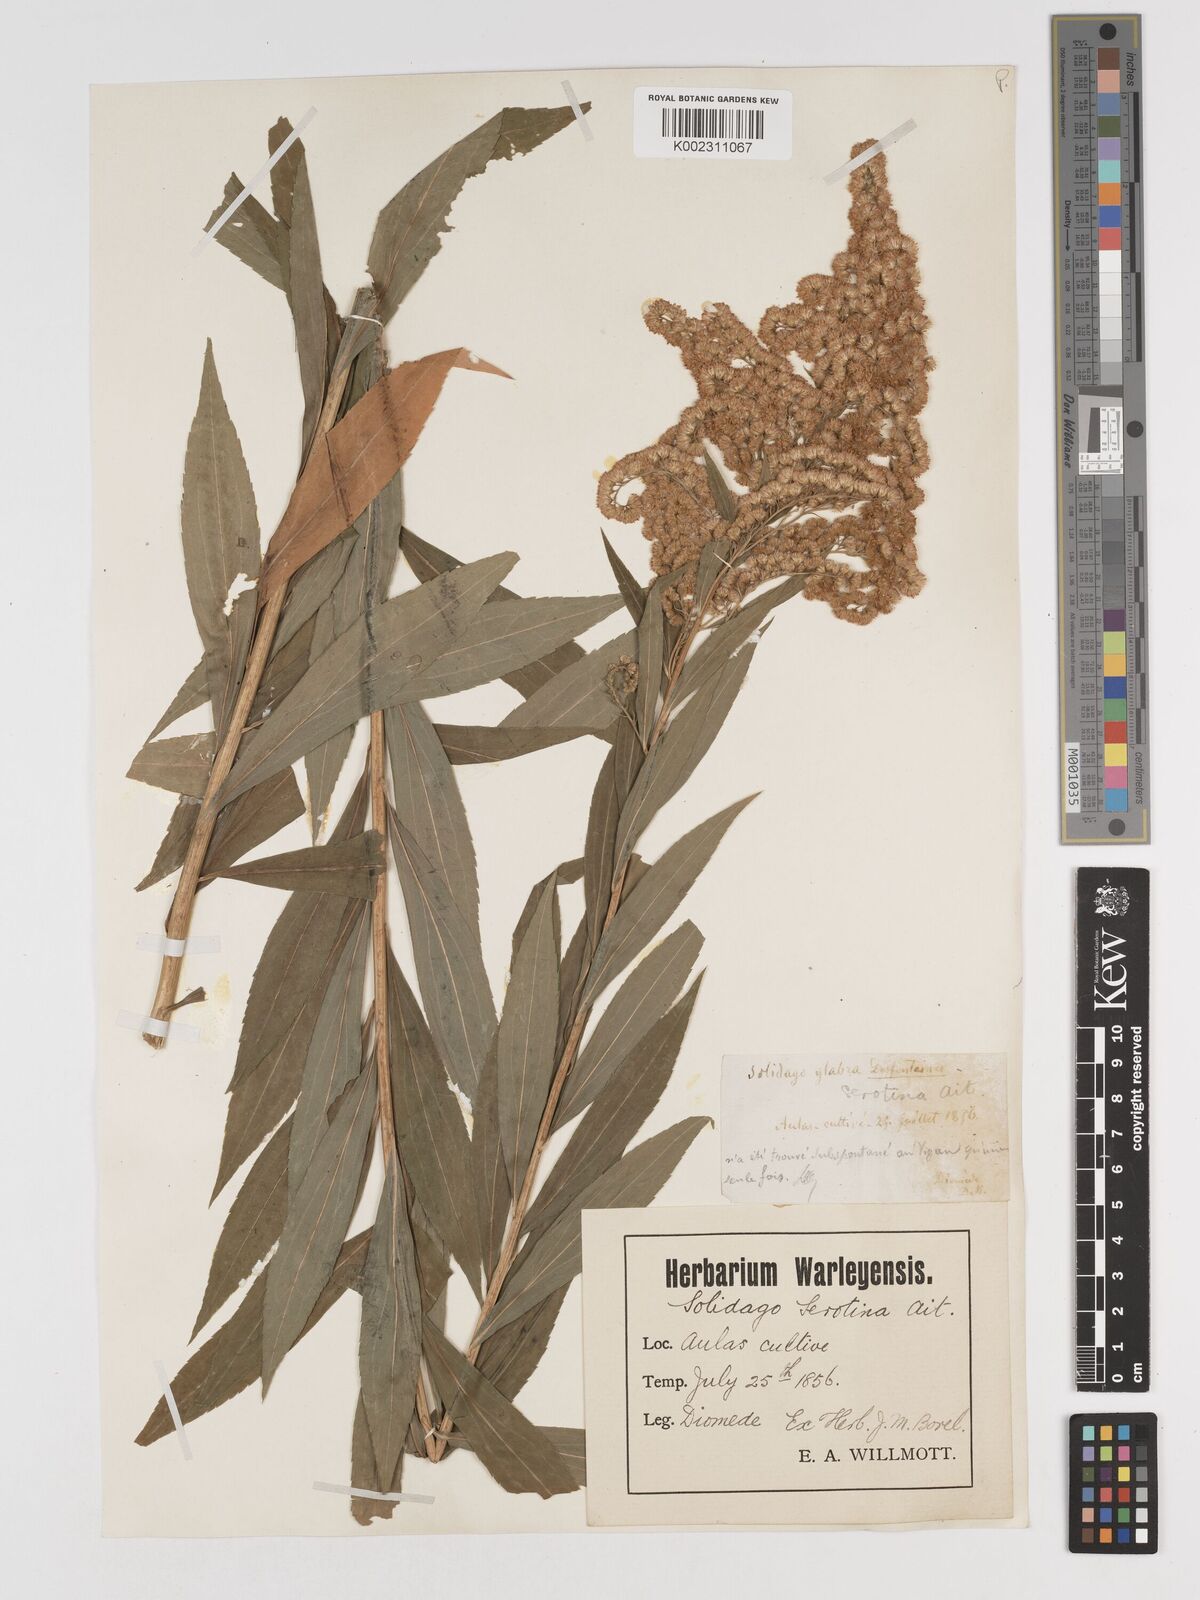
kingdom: Plantae
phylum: Tracheophyta
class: Magnoliopsida
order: Asterales
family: Asteraceae
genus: Solidago
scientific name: Solidago
